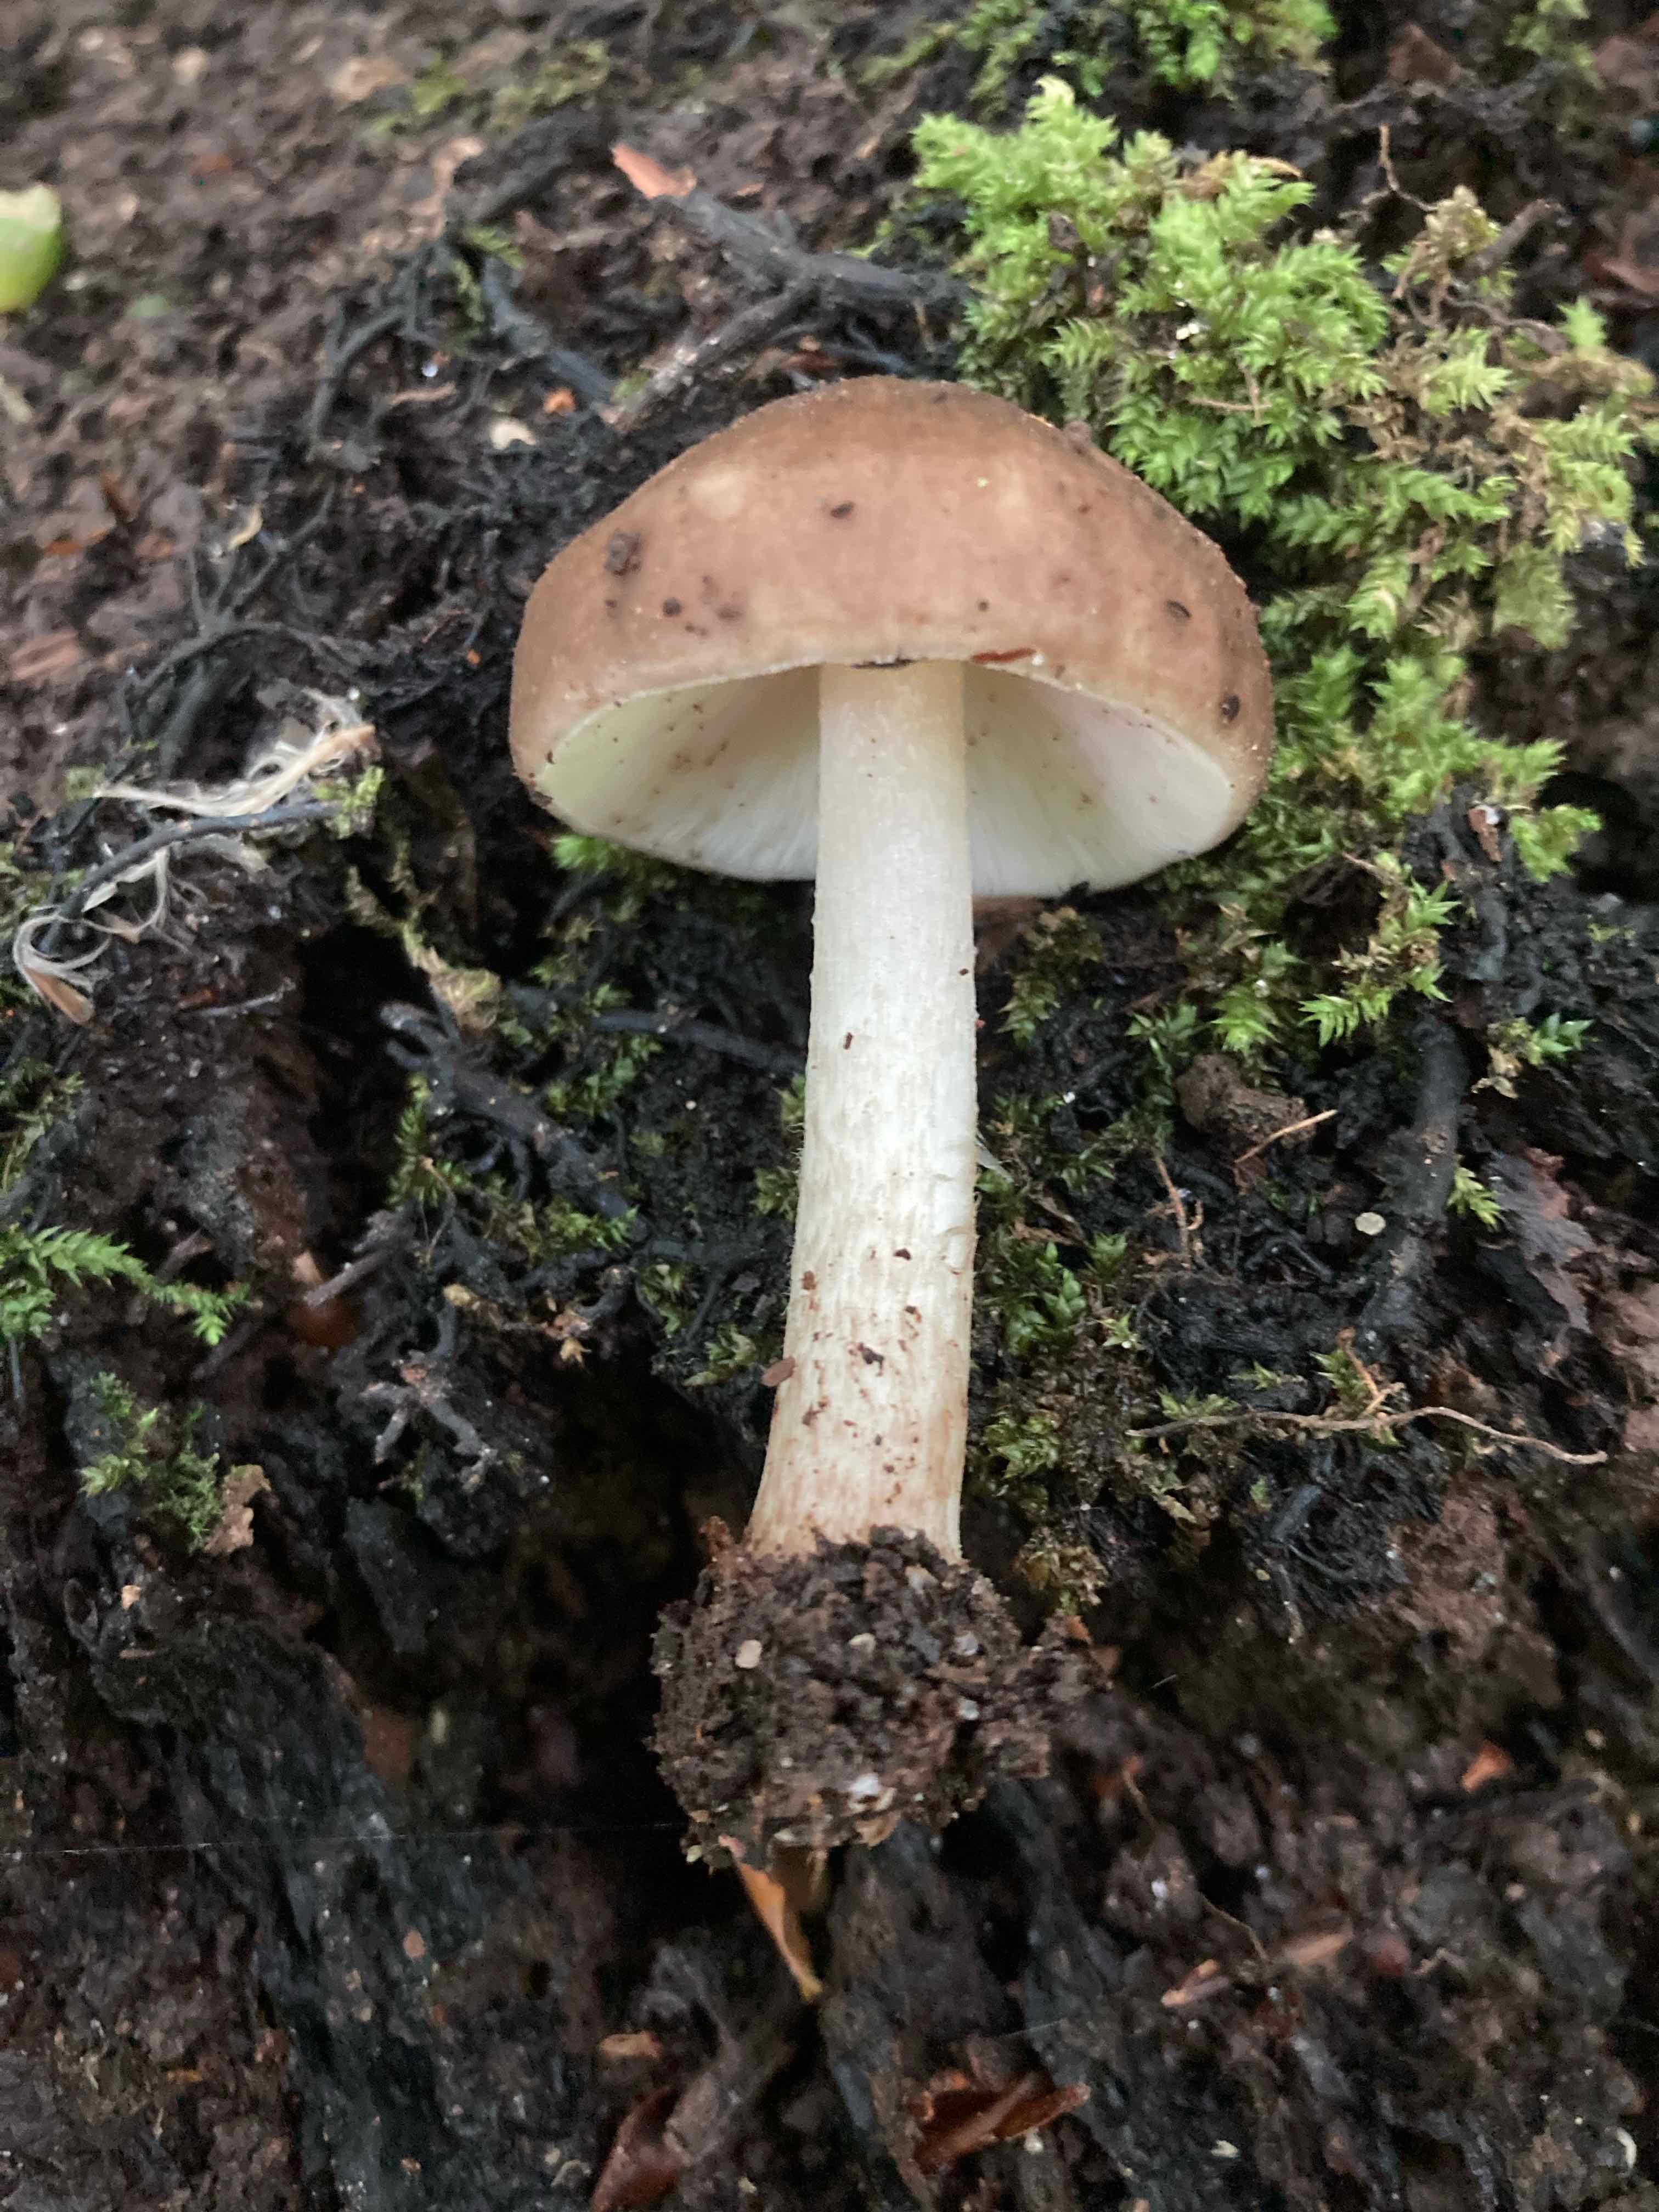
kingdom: Fungi
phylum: Basidiomycota
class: Agaricomycetes
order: Agaricales
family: Pluteaceae
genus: Pluteus
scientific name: Pluteus cervinus
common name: sodfarvet skærmhat
